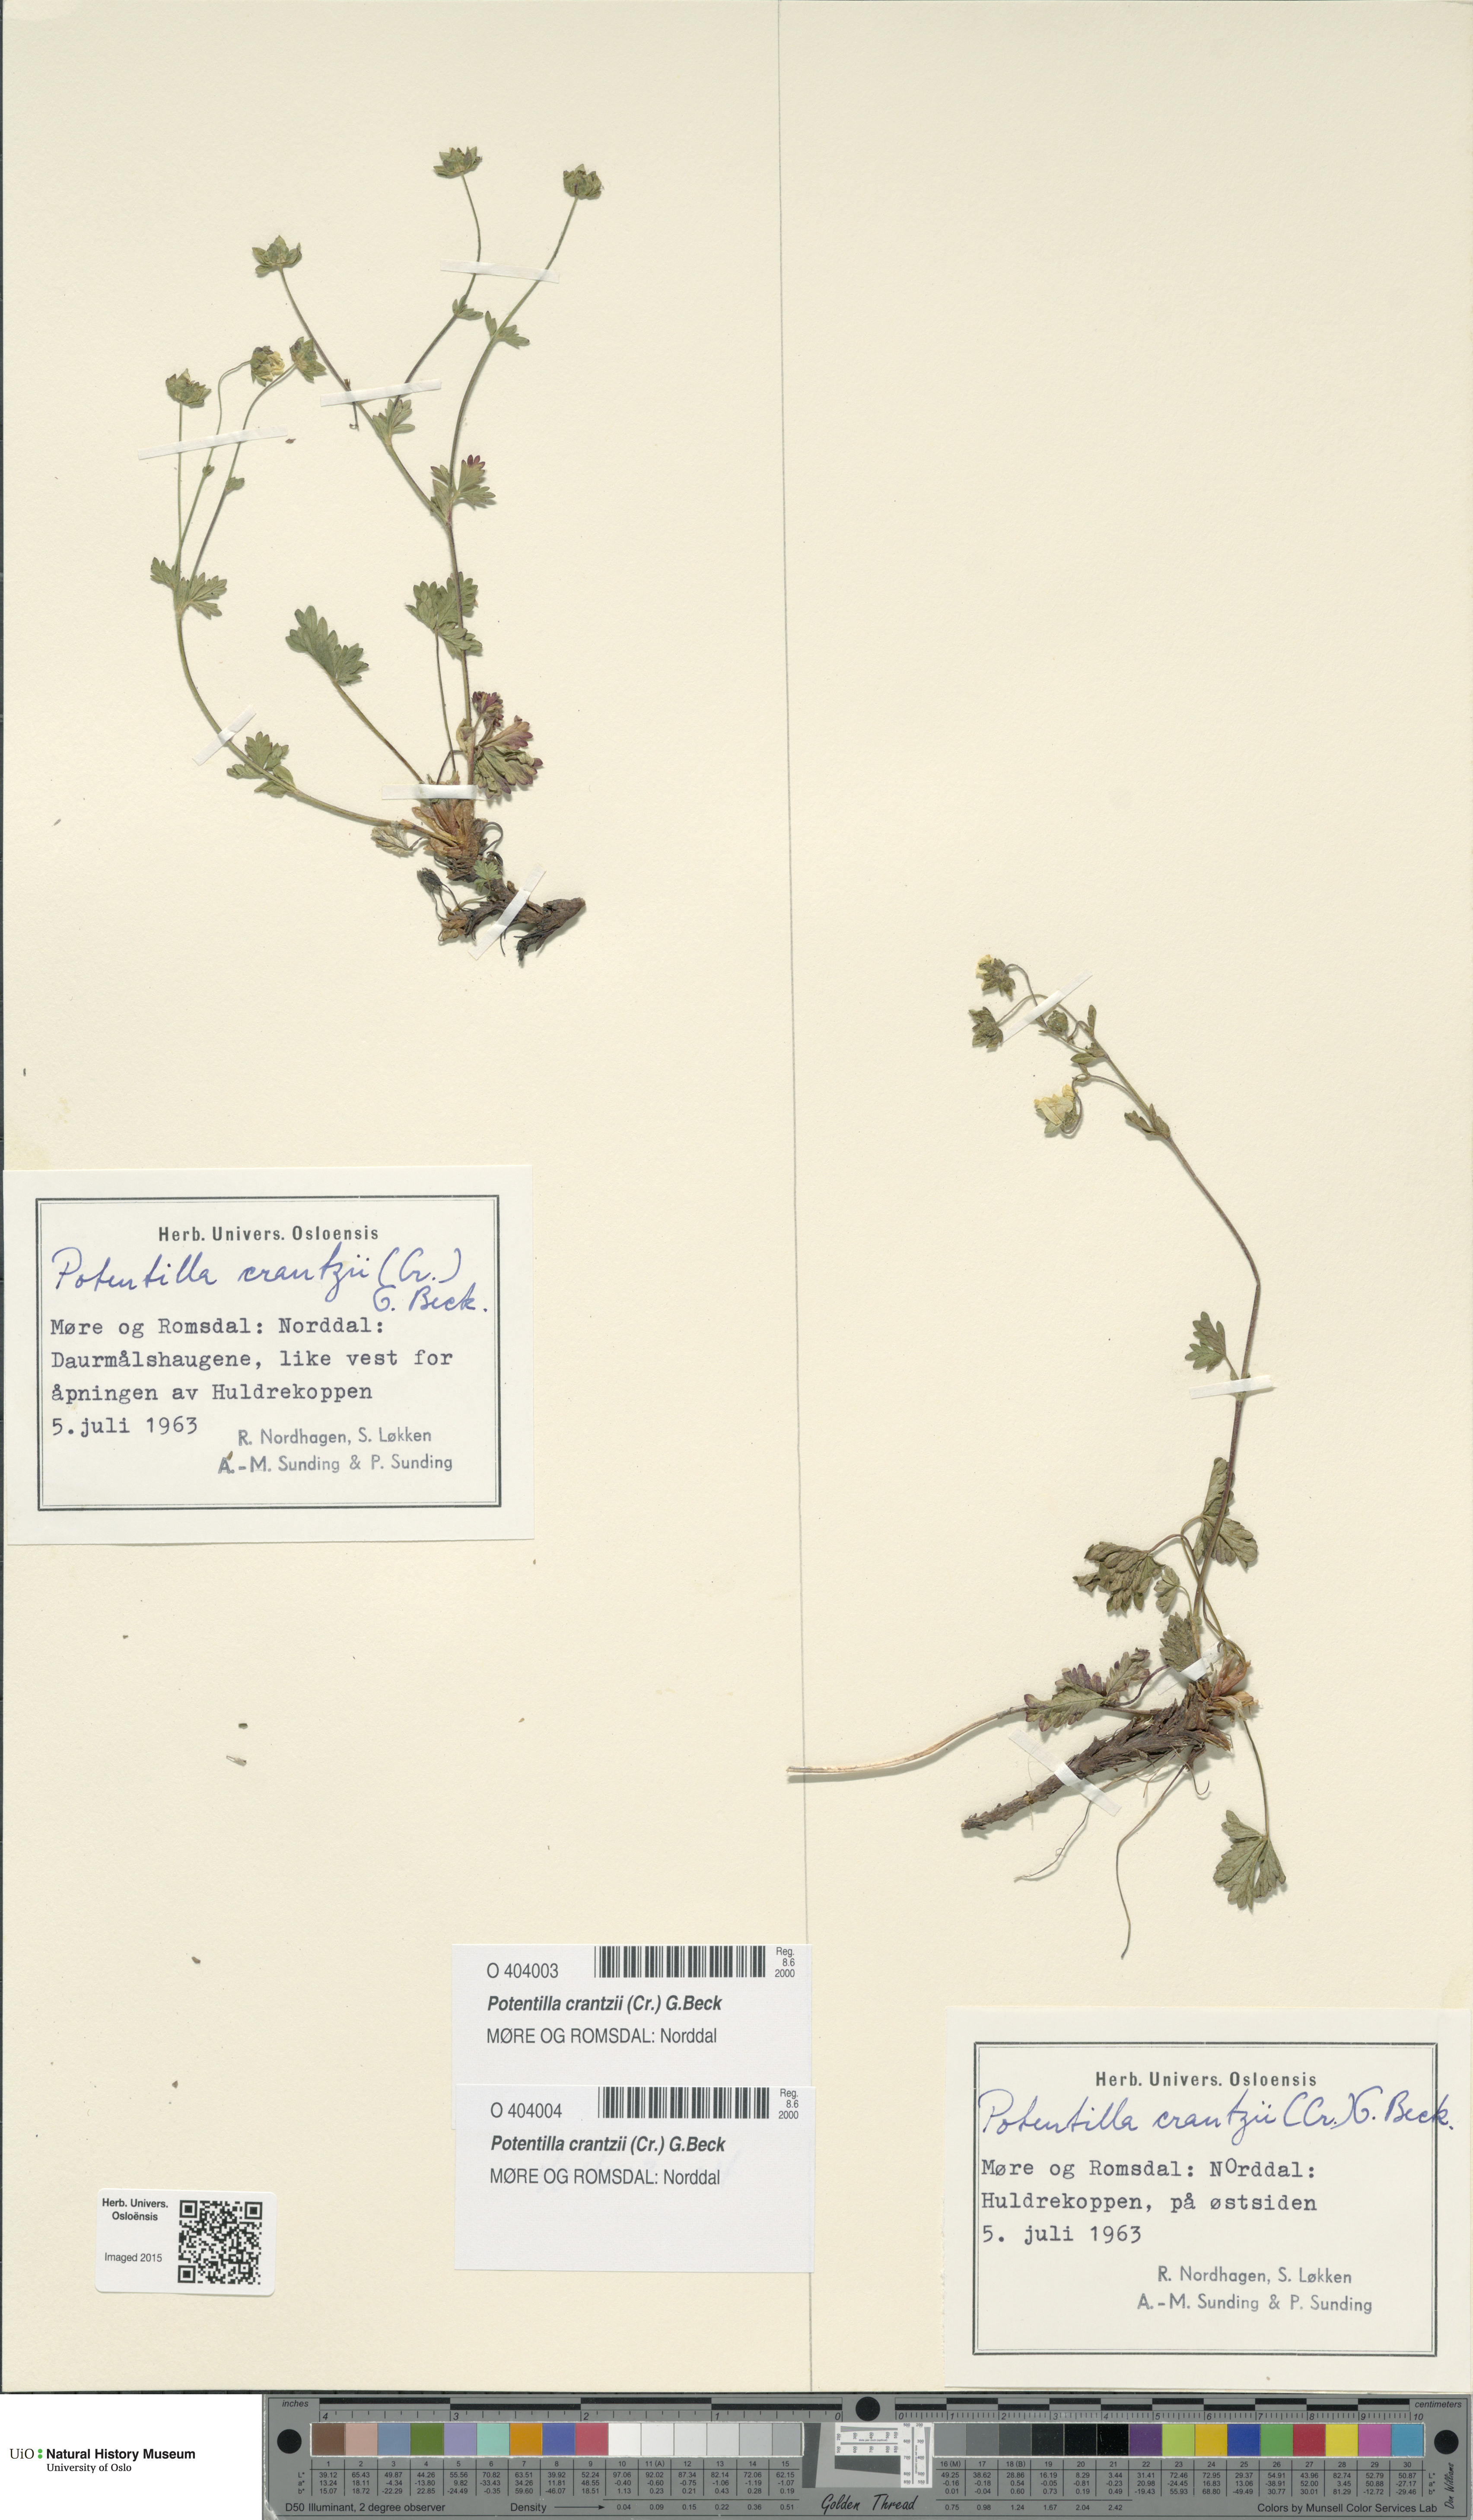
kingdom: Plantae
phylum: Tracheophyta
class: Magnoliopsida
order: Rosales
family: Rosaceae
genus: Potentilla
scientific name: Potentilla crantzii
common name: Alpine cinquefoil
